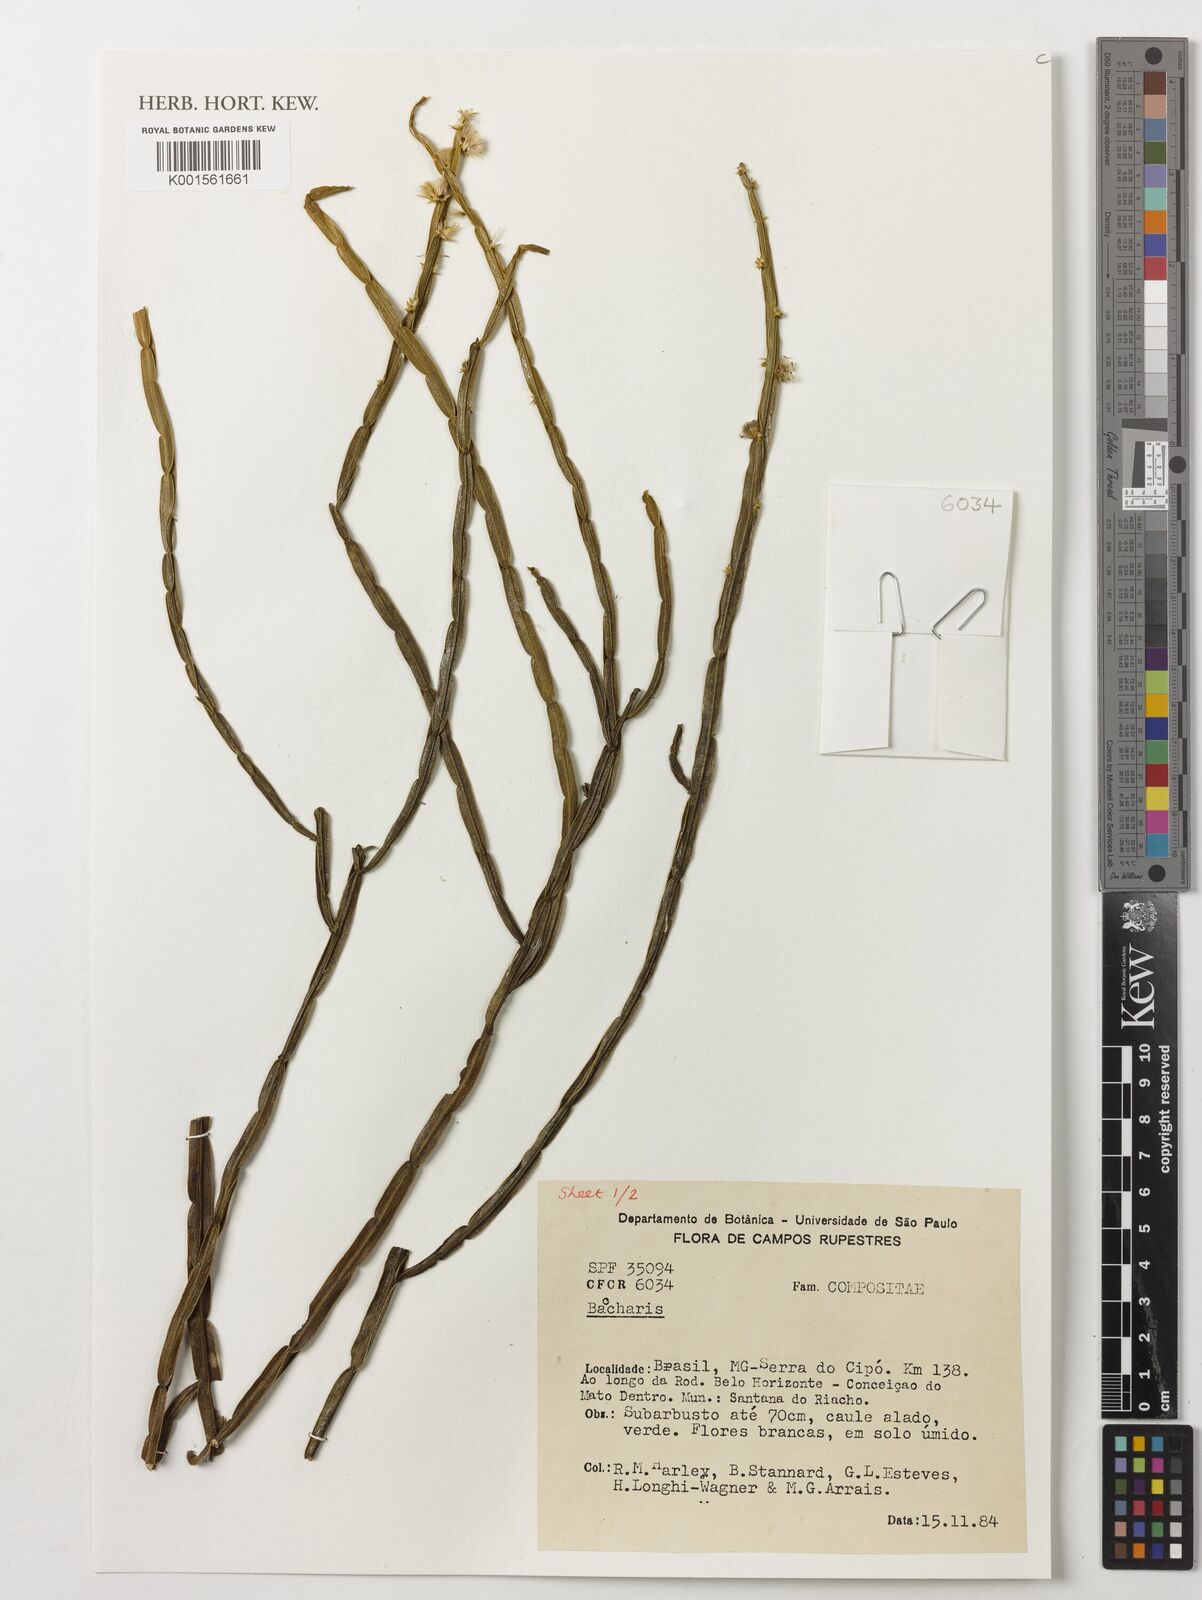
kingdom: Plantae
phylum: Tracheophyta
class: Magnoliopsida
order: Asterales
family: Asteraceae
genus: Baccharis
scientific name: Baccharis
